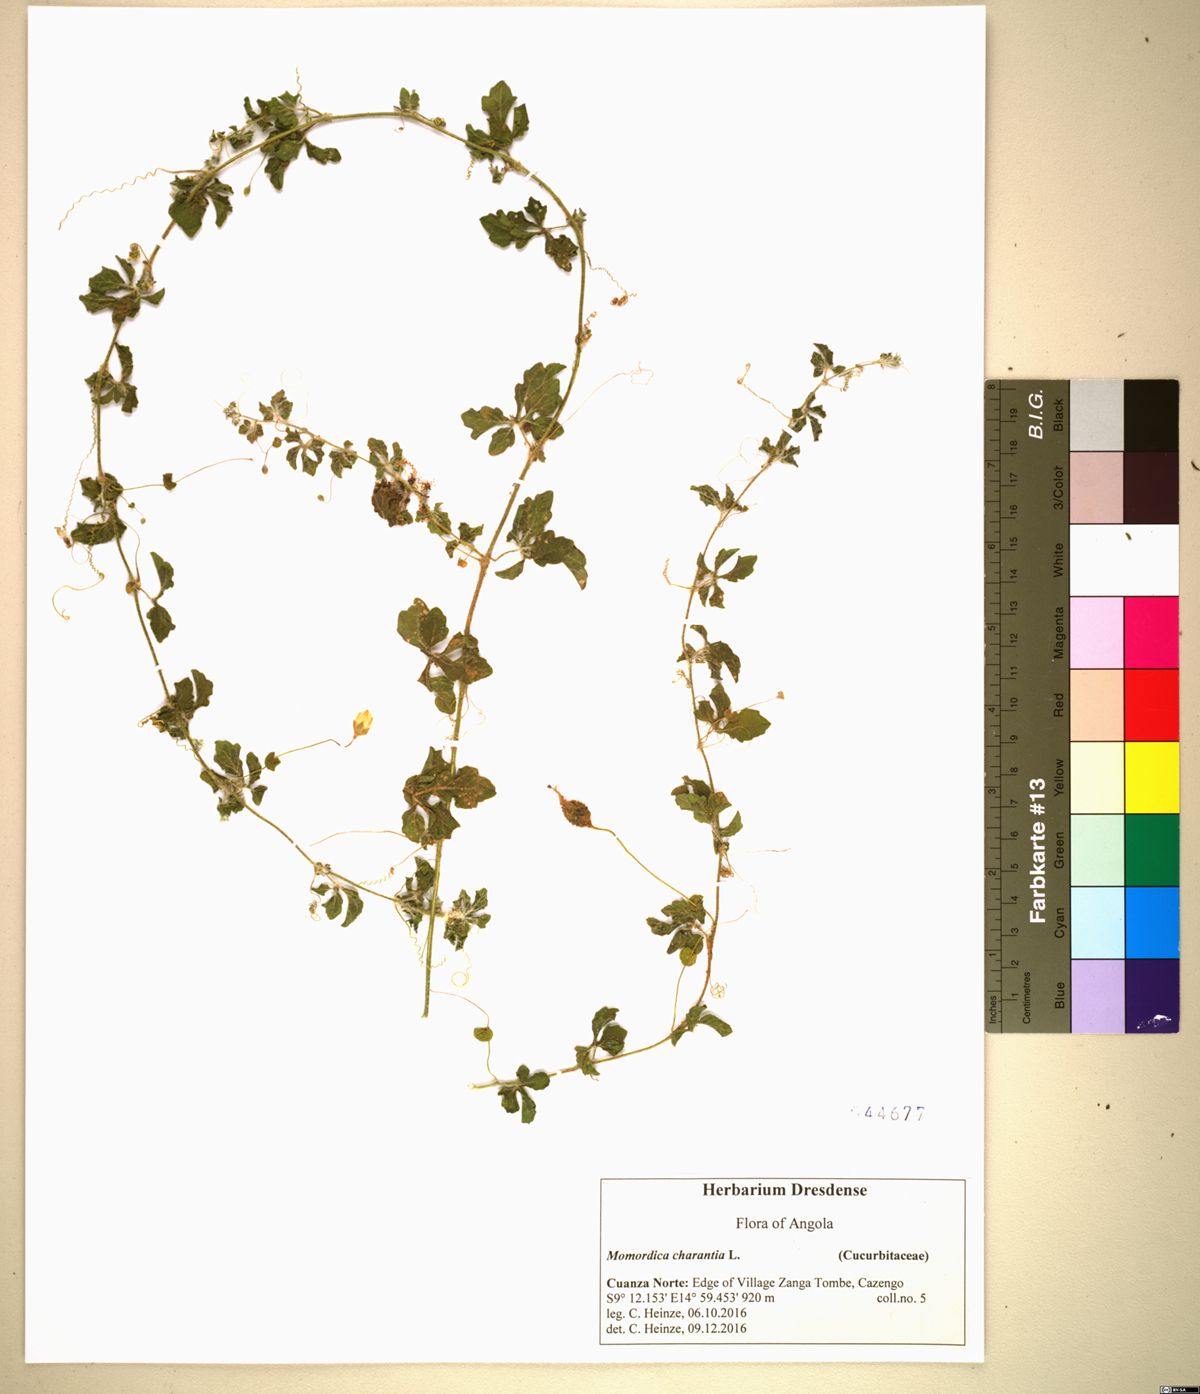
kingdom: Plantae
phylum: Tracheophyta
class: Magnoliopsida
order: Cucurbitales
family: Cucurbitaceae
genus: Momordica
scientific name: Momordica charantia
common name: Balsampear
